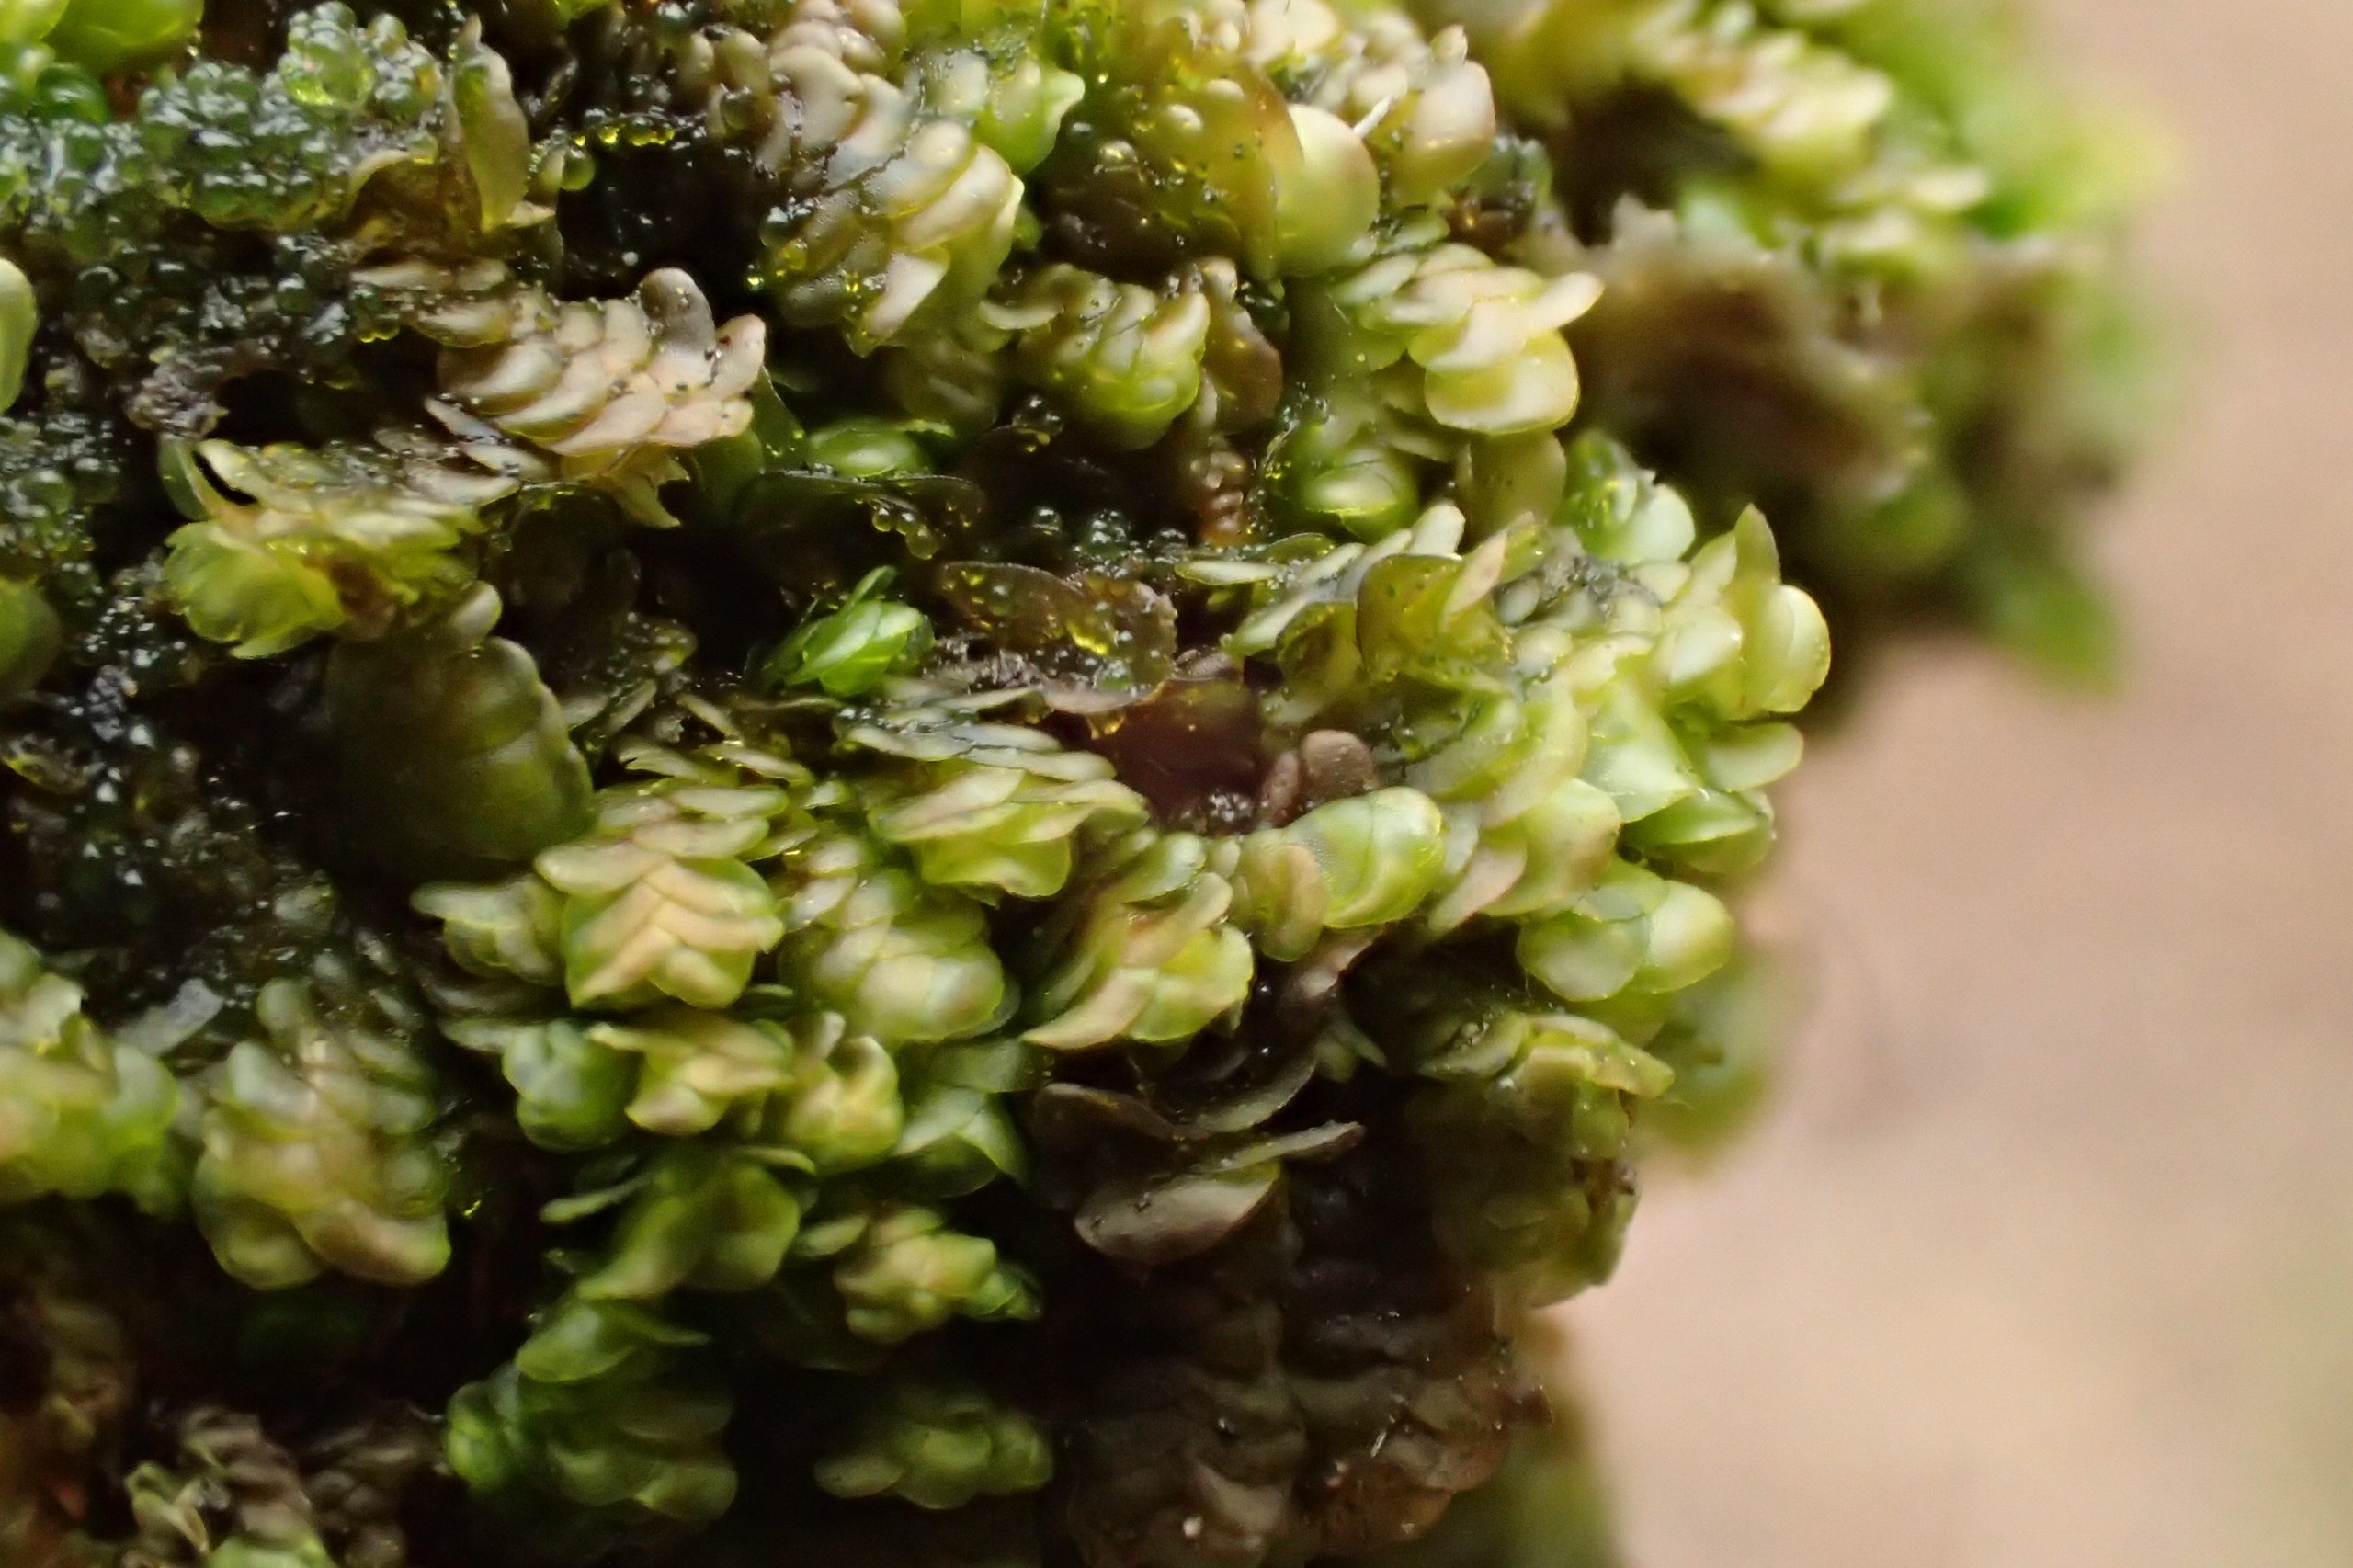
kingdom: Plantae
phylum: Marchantiophyta
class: Jungermanniopsida
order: Porellales
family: Frullaniaceae
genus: Frullania
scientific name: Frullania dilatata
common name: Mat bronzemos
